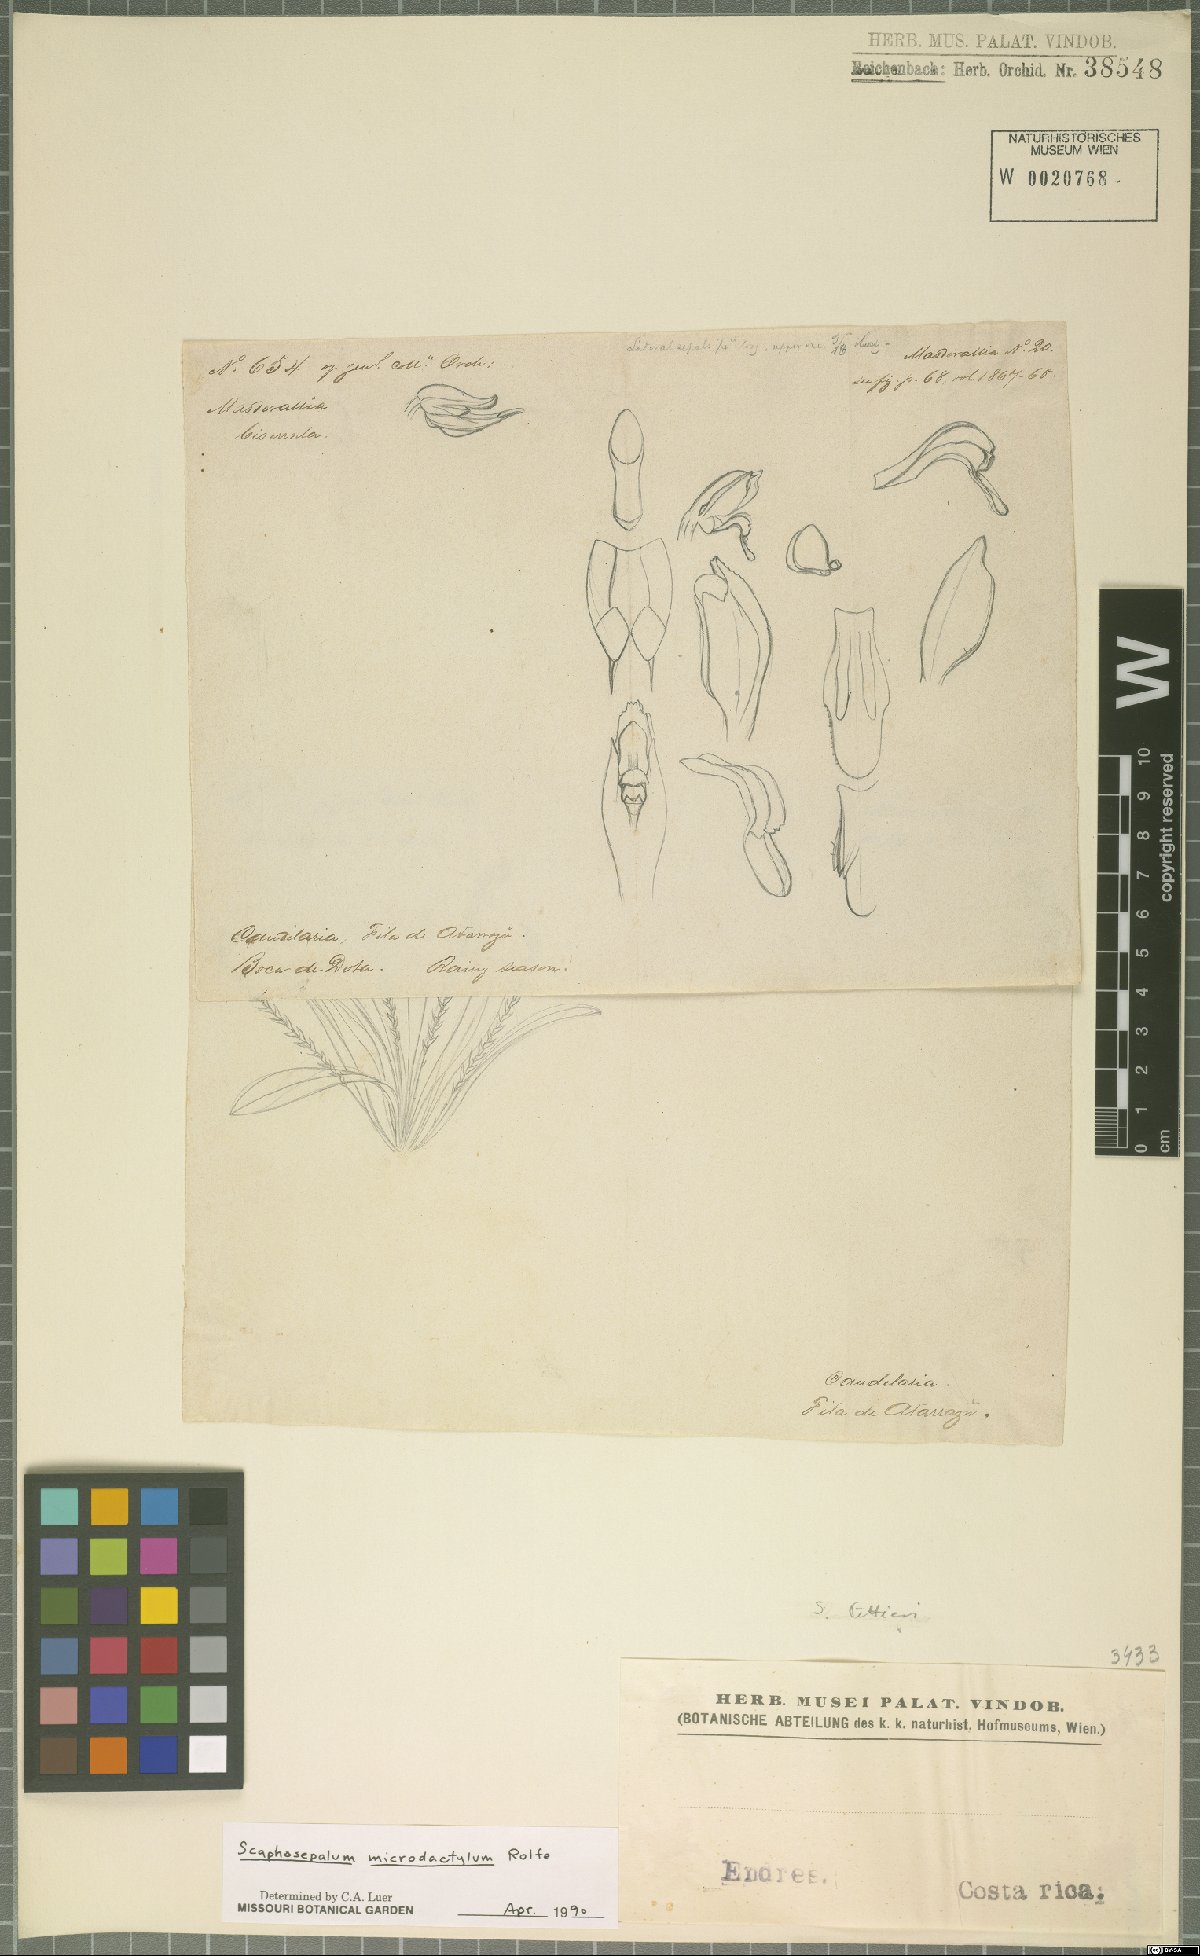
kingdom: Plantae
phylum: Tracheophyta
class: Liliopsida
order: Asparagales
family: Orchidaceae
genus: Scaphosepalum
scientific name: Scaphosepalum microdactylum
